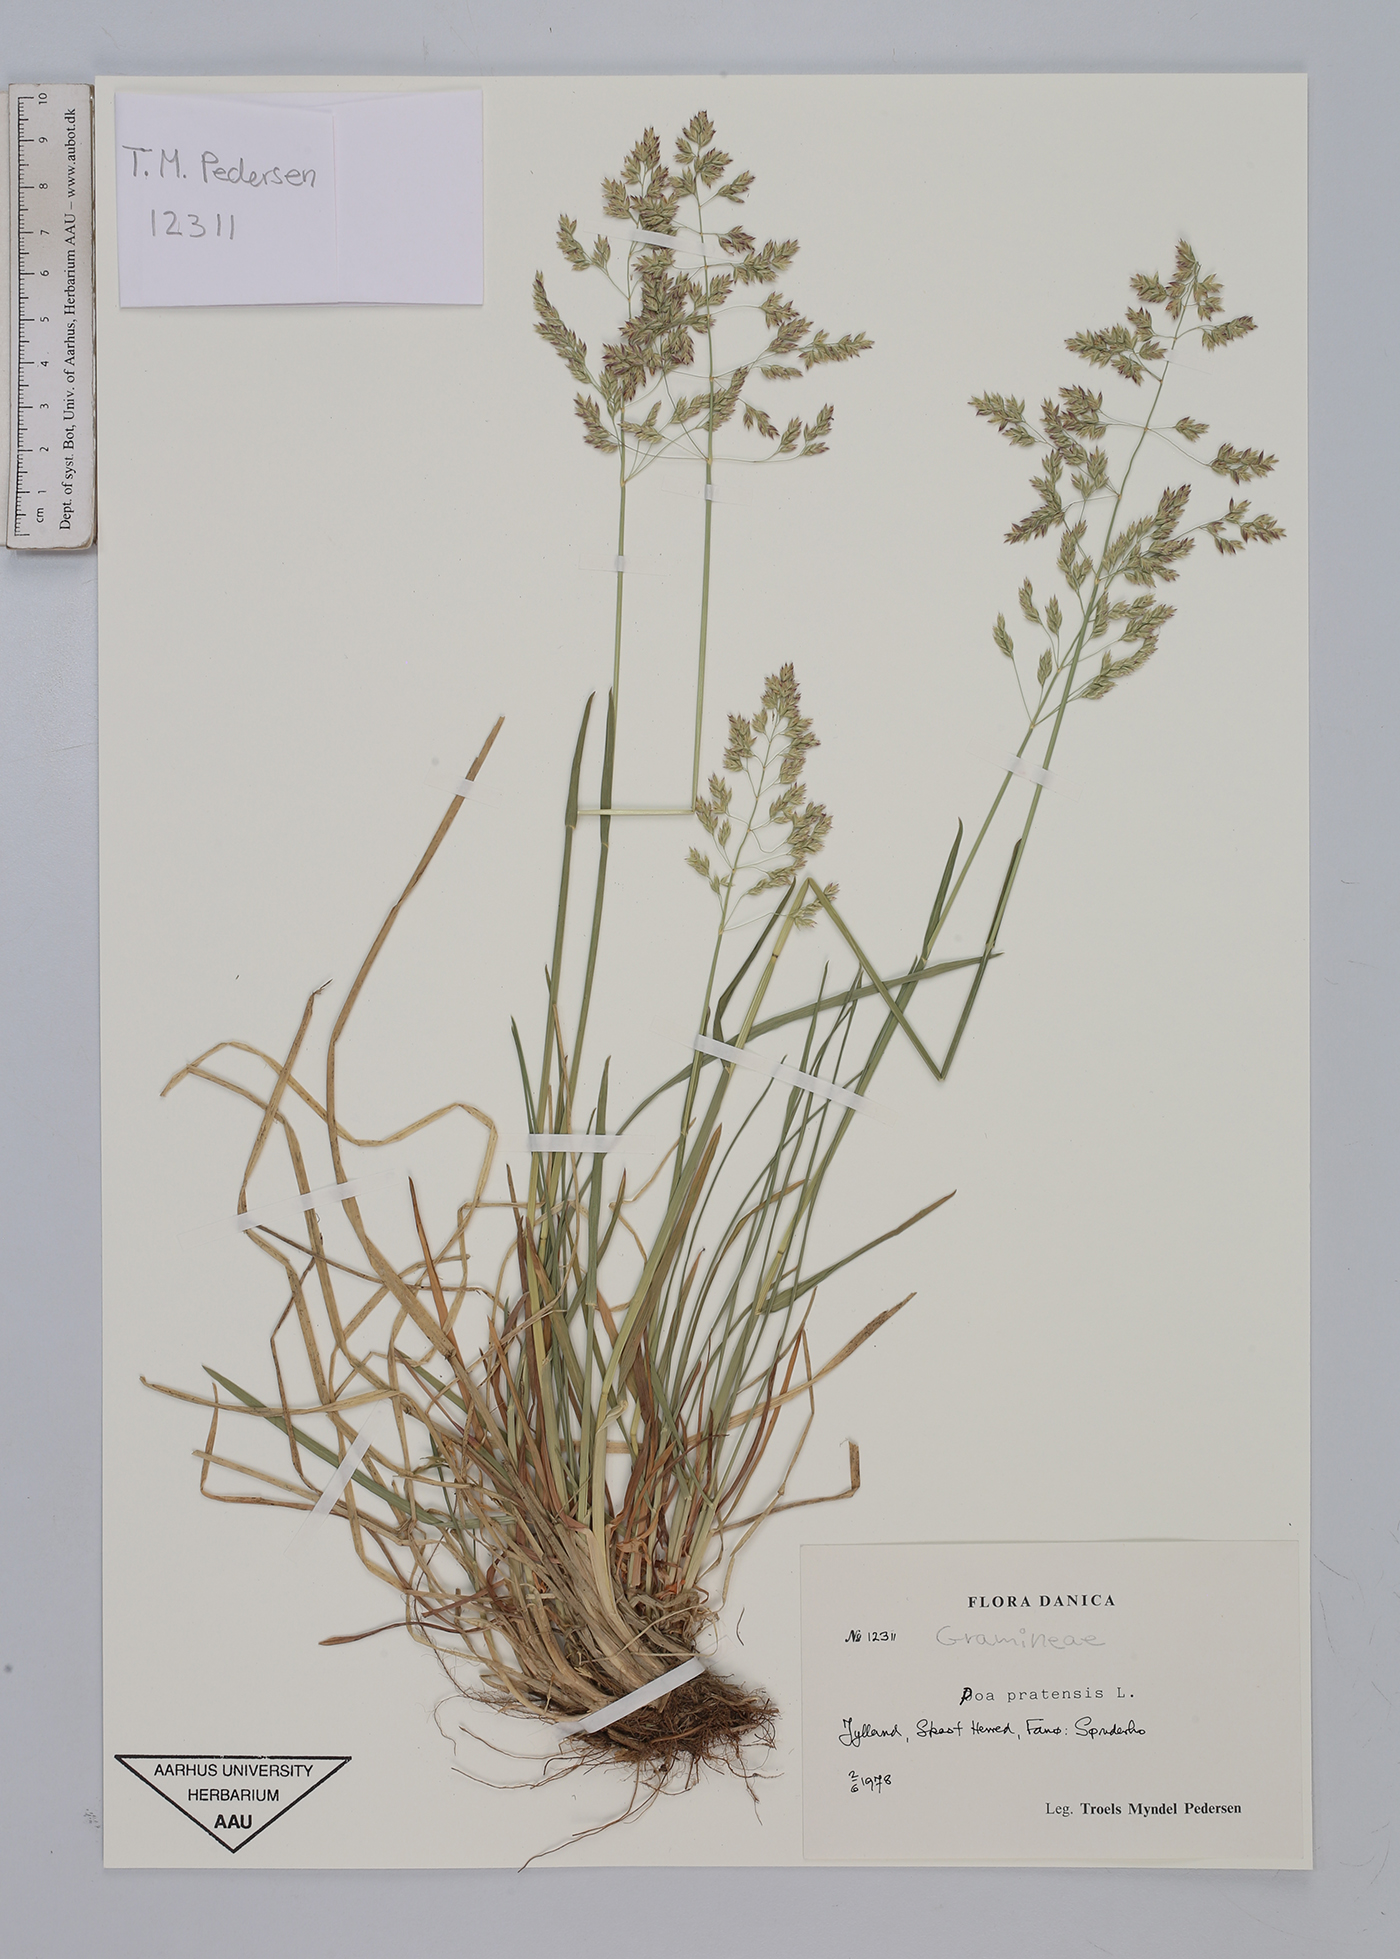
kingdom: Plantae
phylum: Tracheophyta
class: Liliopsida
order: Poales
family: Poaceae
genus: Poa
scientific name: Poa pratensis
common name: Kentucky bluegrass
